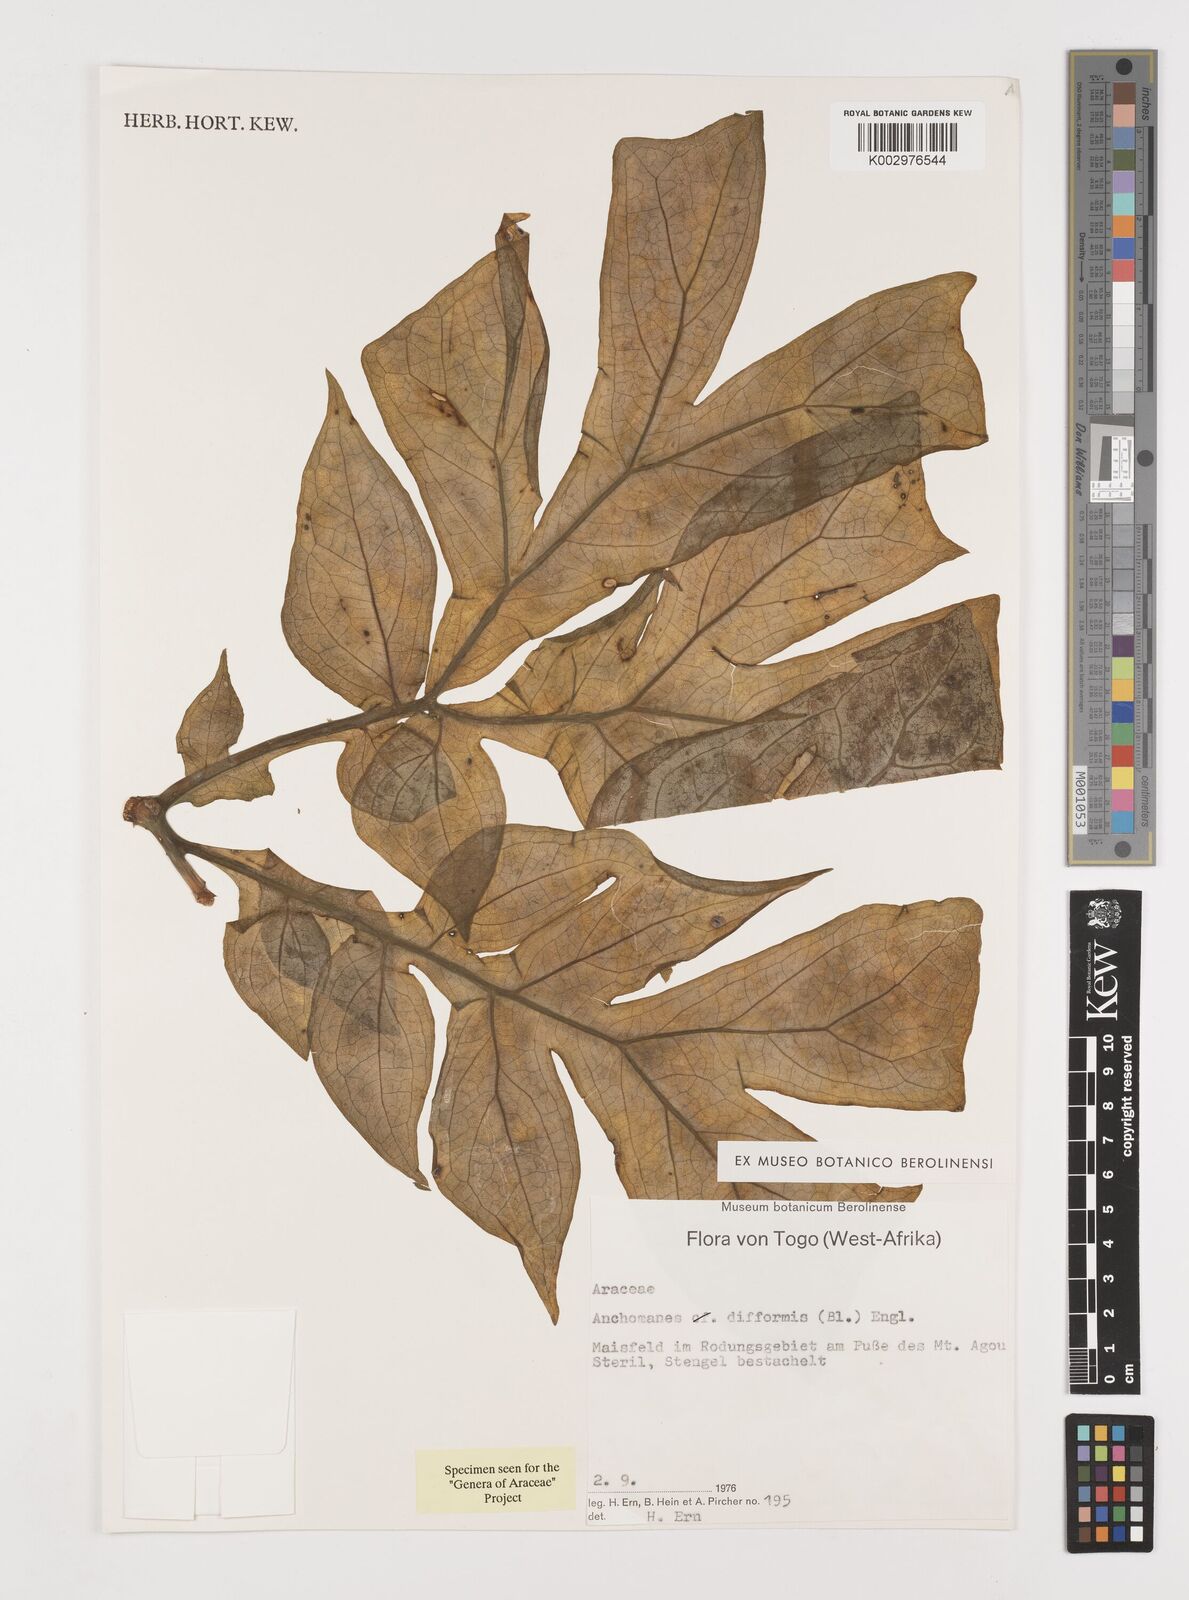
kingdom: Plantae
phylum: Tracheophyta
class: Liliopsida
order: Alismatales
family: Araceae
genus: Anchomanes
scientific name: Anchomanes difformis
